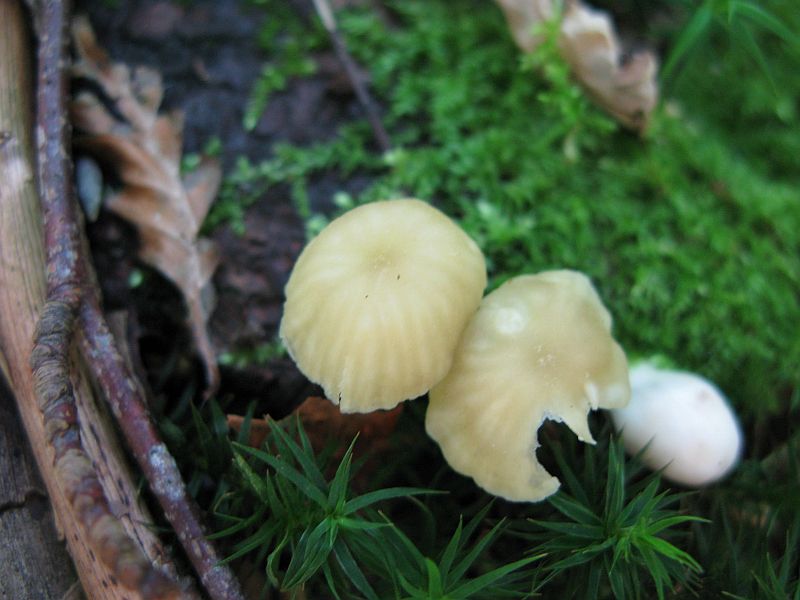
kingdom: Fungi
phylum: Basidiomycota
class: Agaricomycetes
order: Agaricales
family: Hygrophoraceae
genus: Chrysomphalina
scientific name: Chrysomphalina grossula
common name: stød-gyldenblad
